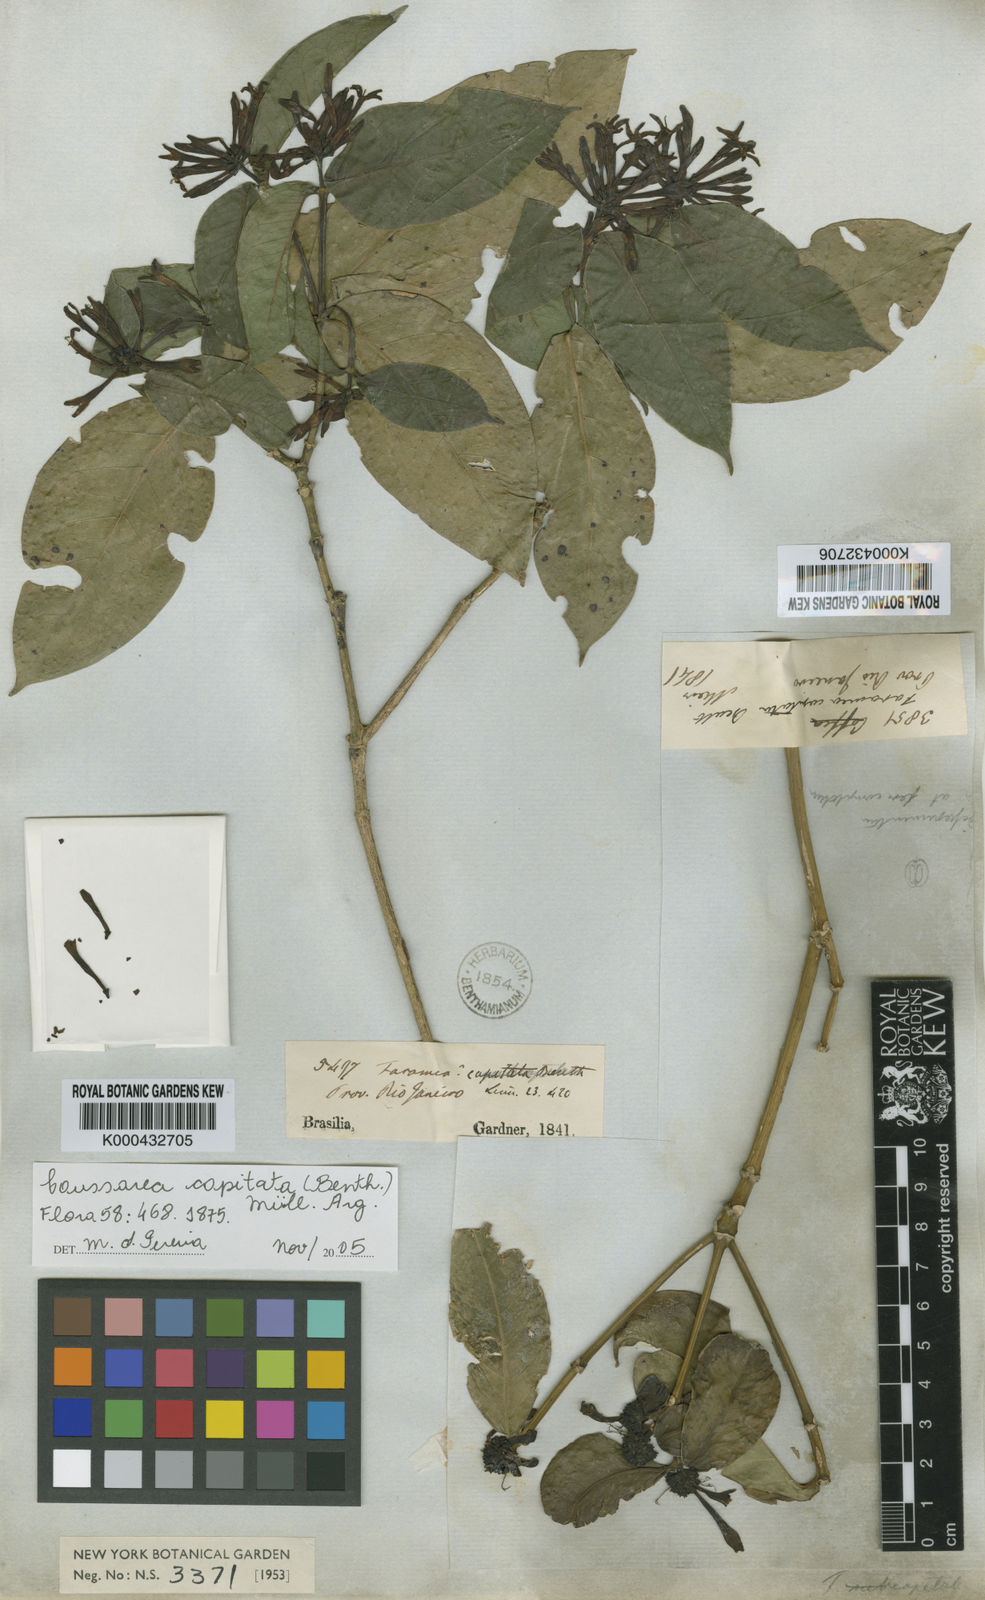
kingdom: Plantae
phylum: Tracheophyta
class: Magnoliopsida
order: Gentianales
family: Rubiaceae
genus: Coussarea
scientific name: Coussarea
